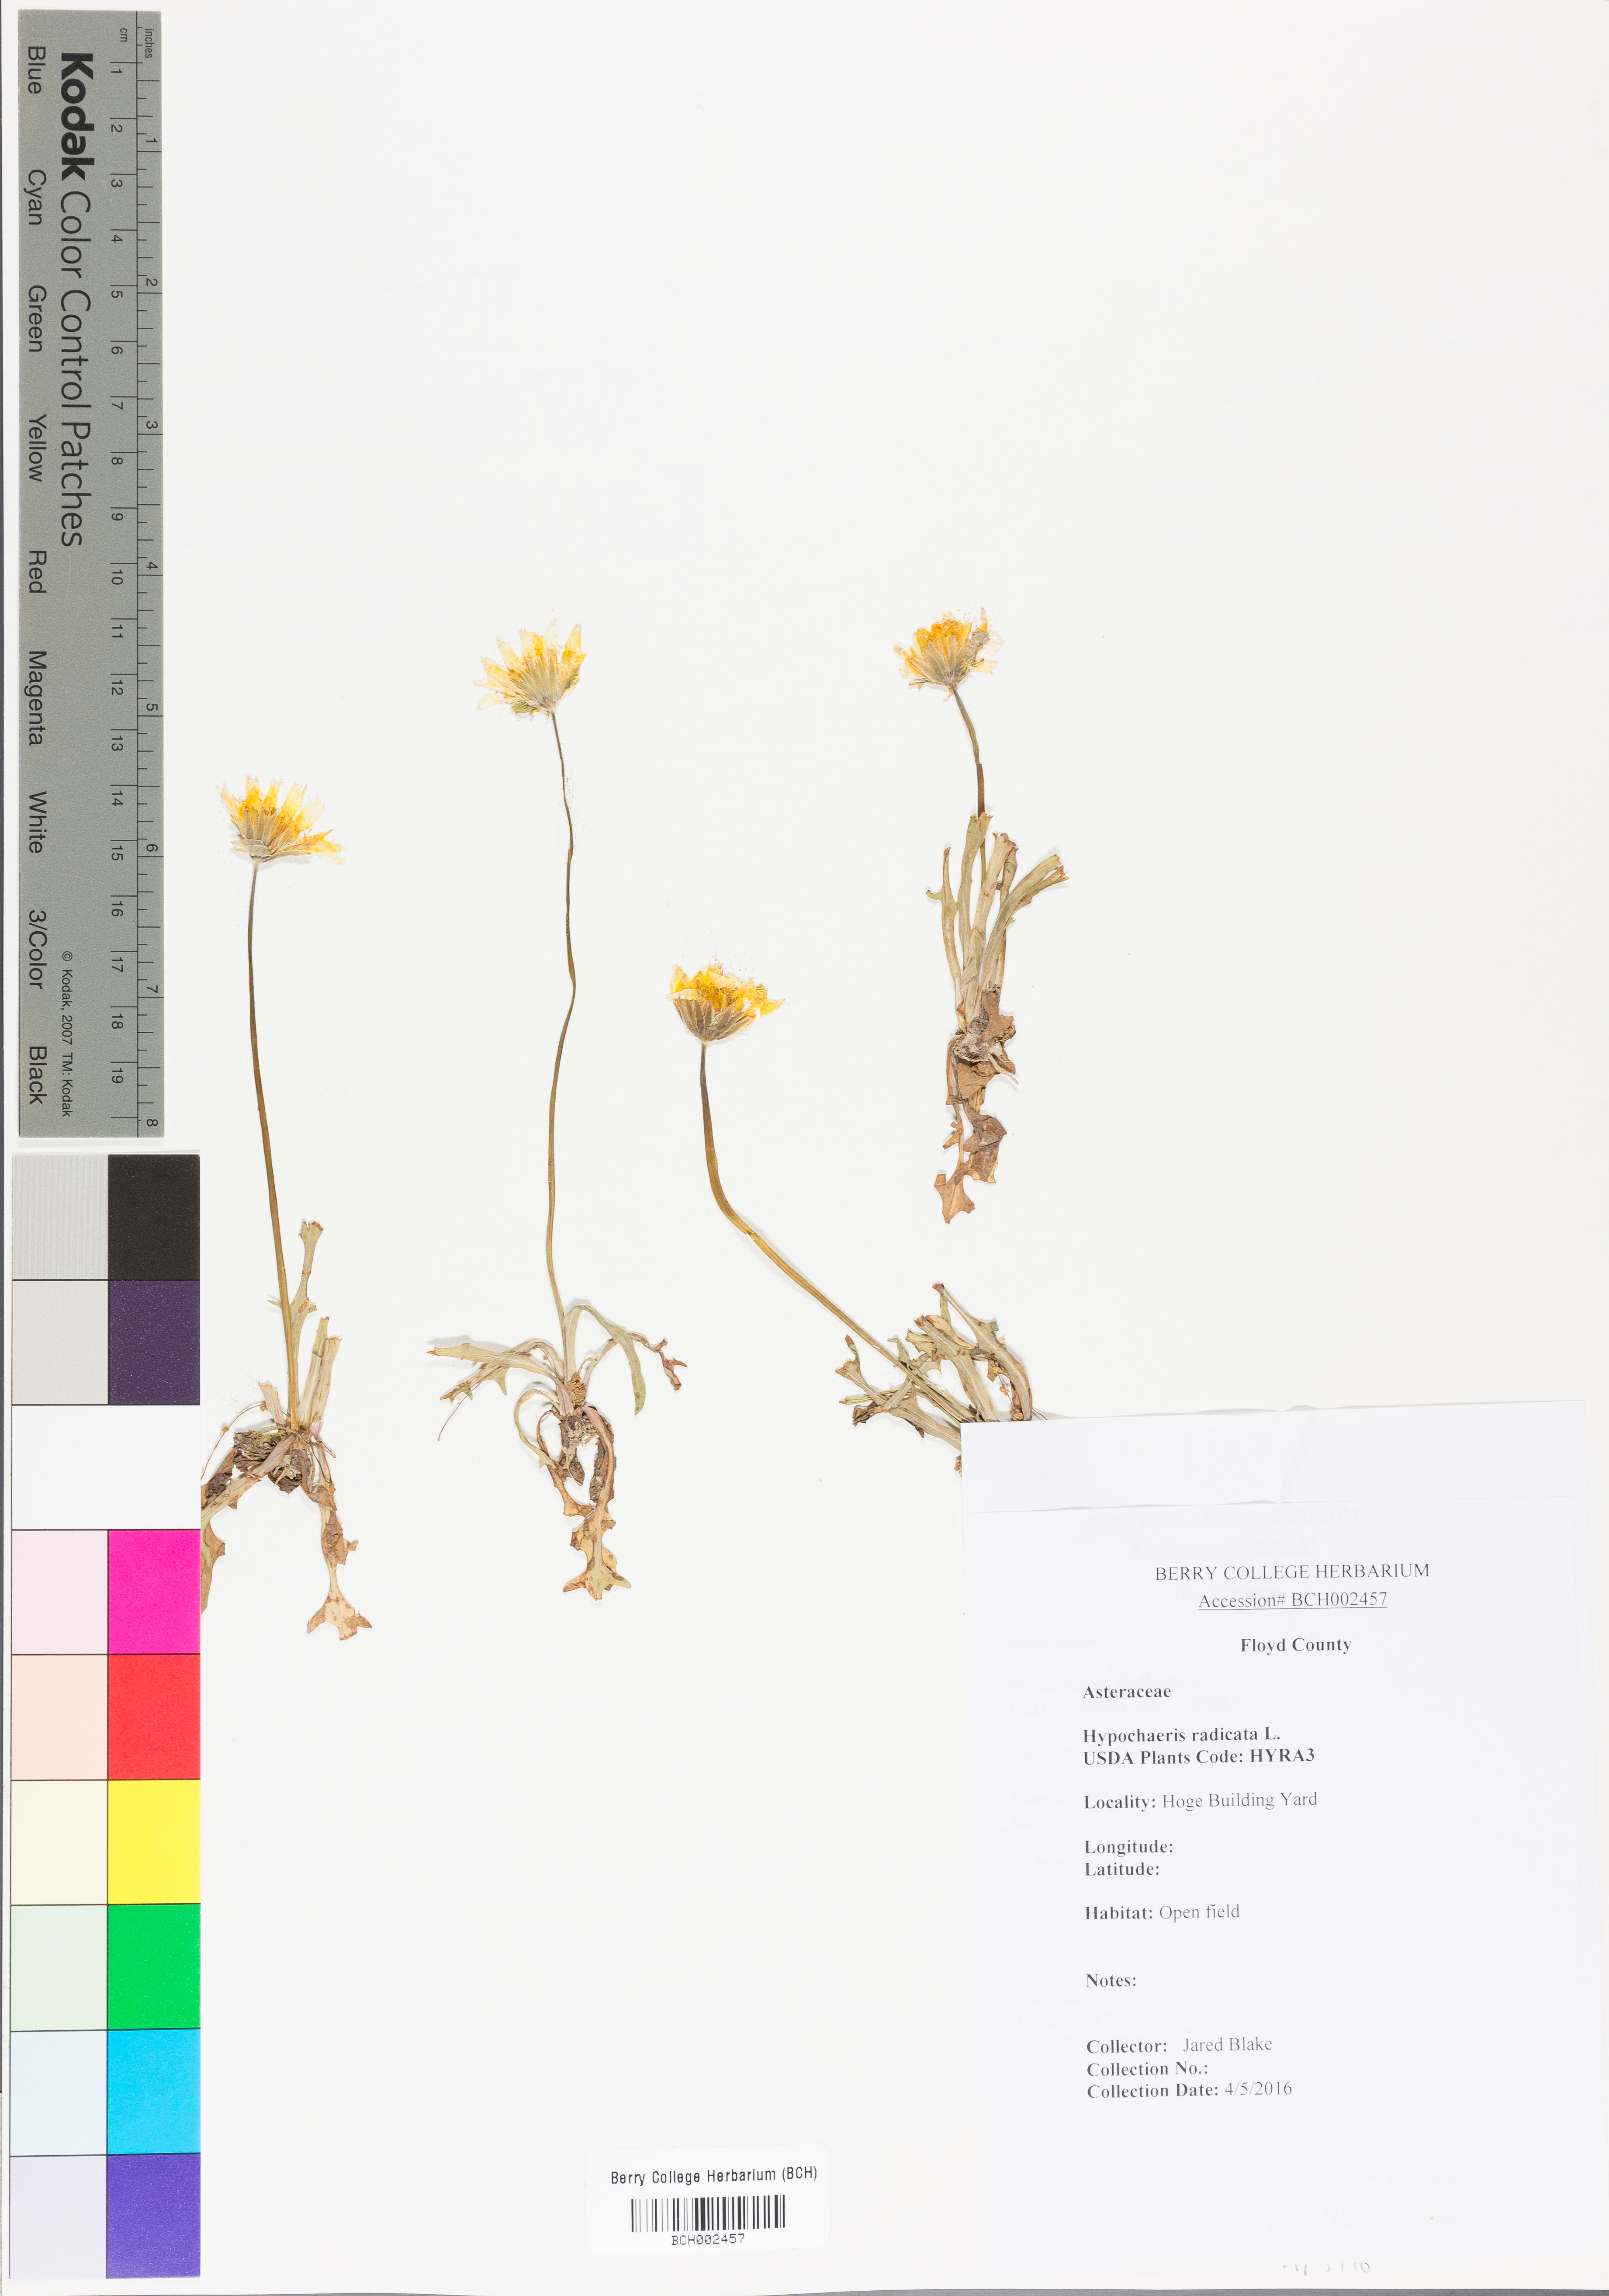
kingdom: Plantae
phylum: Tracheophyta
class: Magnoliopsida
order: Asterales
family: Asteraceae
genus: Hypochaeris
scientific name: Hypochaeris radicata
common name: Flatweed
